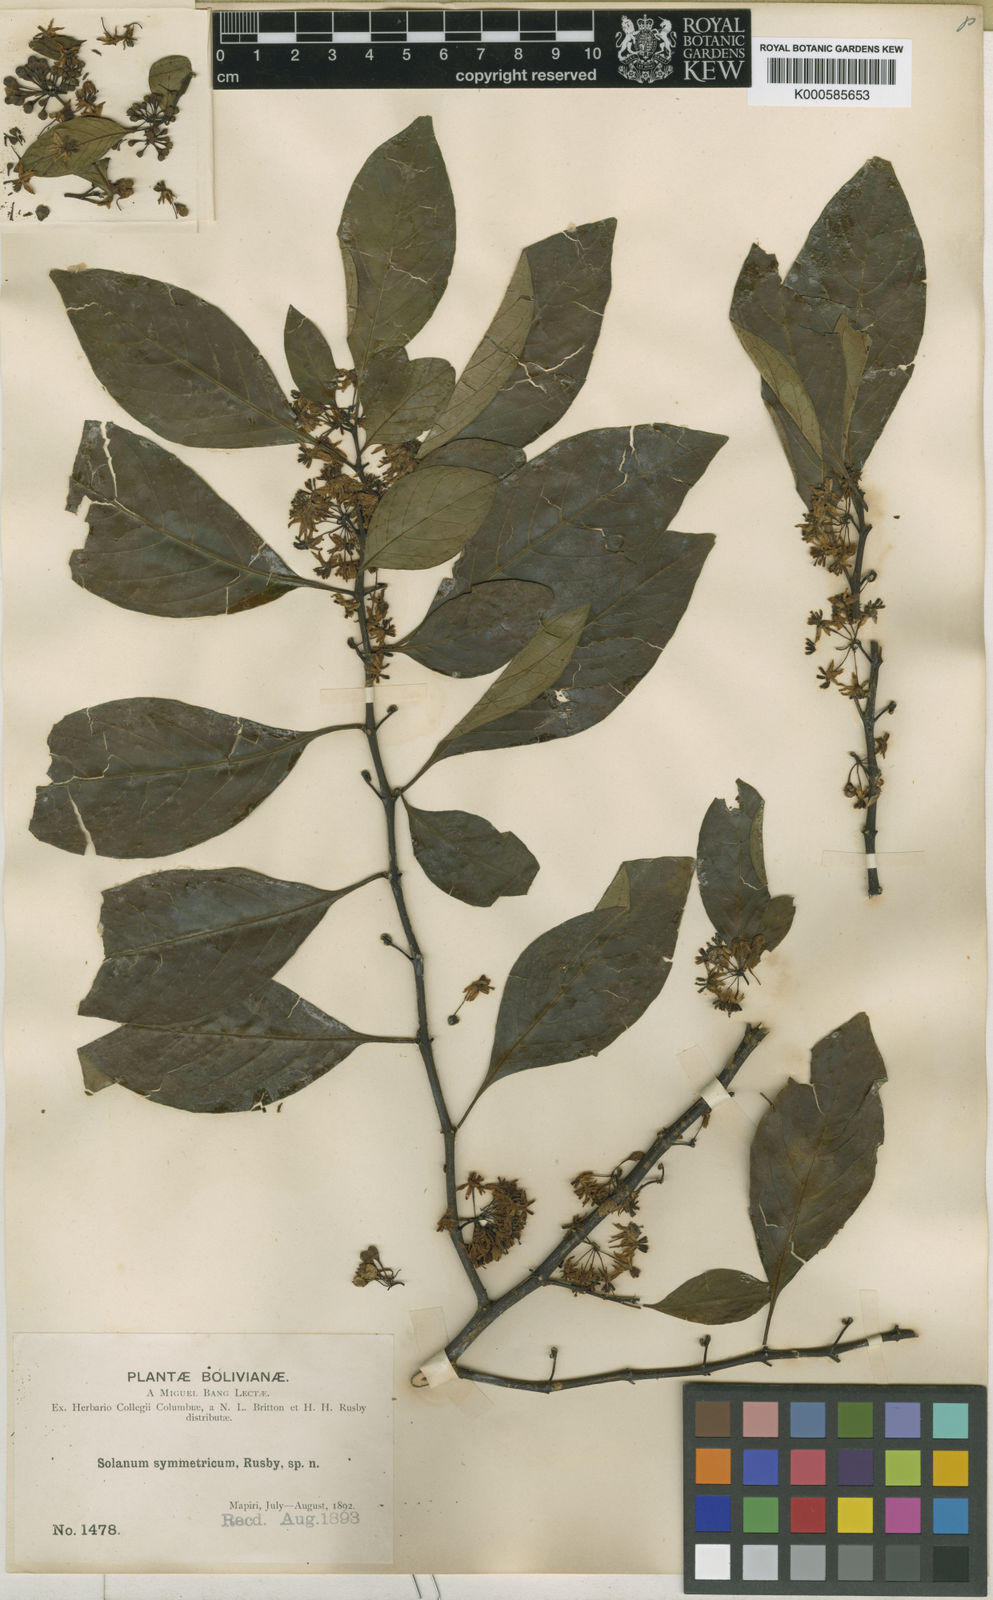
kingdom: Plantae
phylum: Tracheophyta
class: Magnoliopsida
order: Solanales
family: Solanaceae
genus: Solanum
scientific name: Solanum symmetricum
